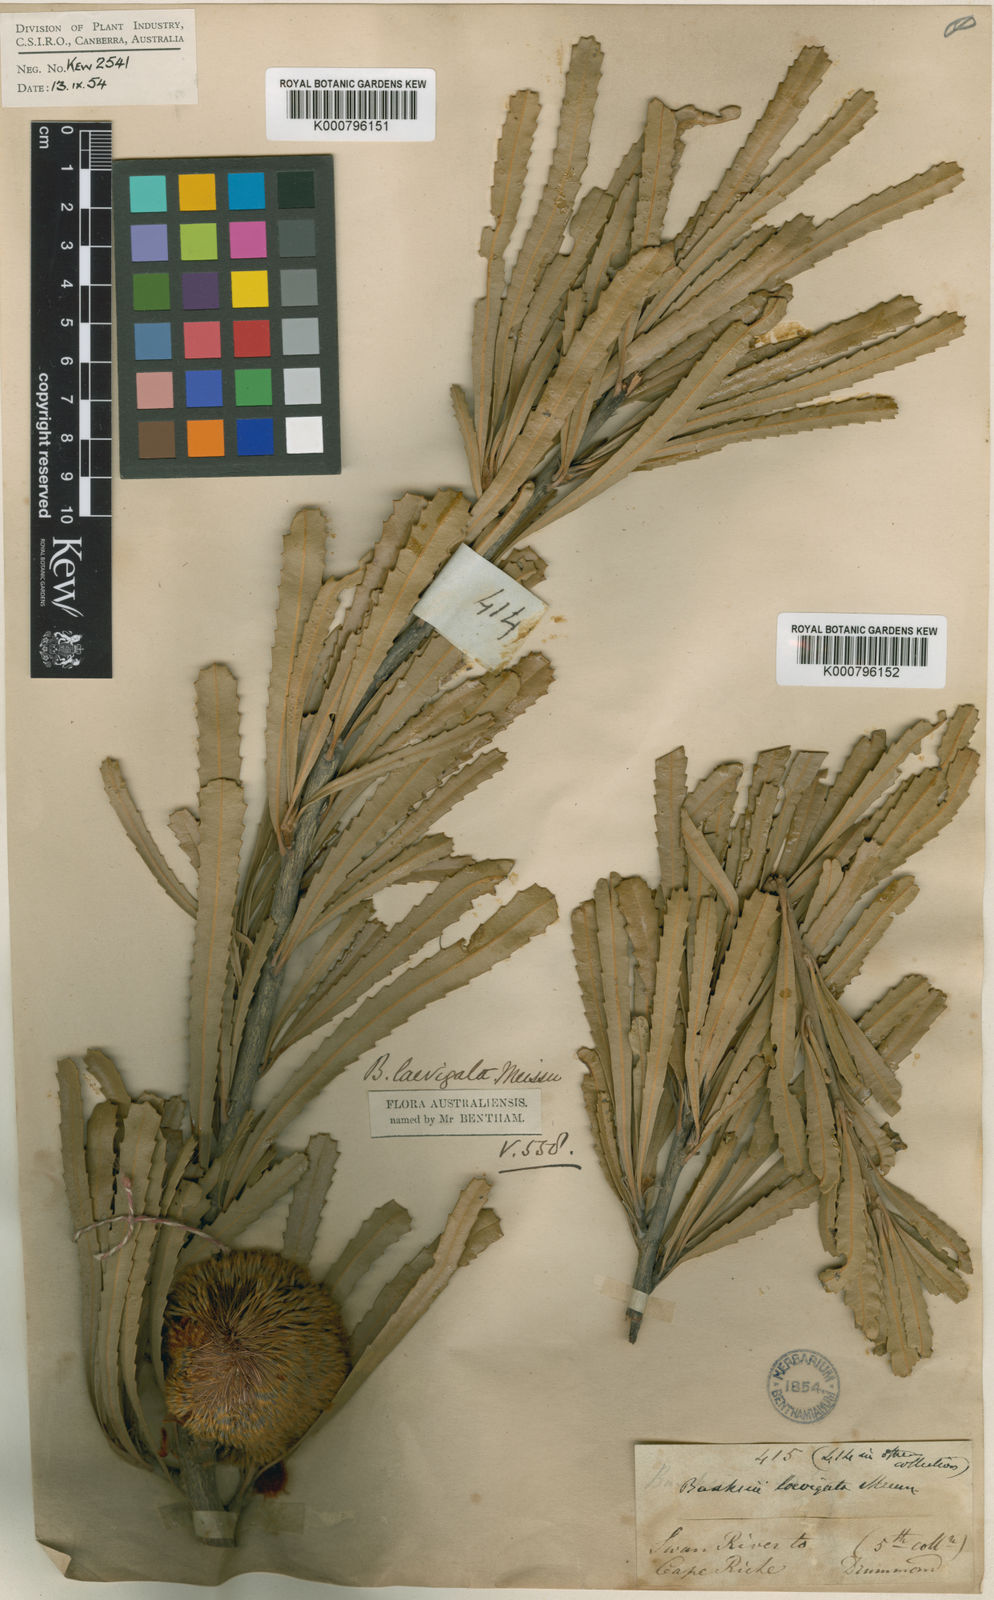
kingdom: Plantae
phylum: Tracheophyta
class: Magnoliopsida
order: Proteales
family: Proteaceae
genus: Banksia
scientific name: Banksia laevigata
